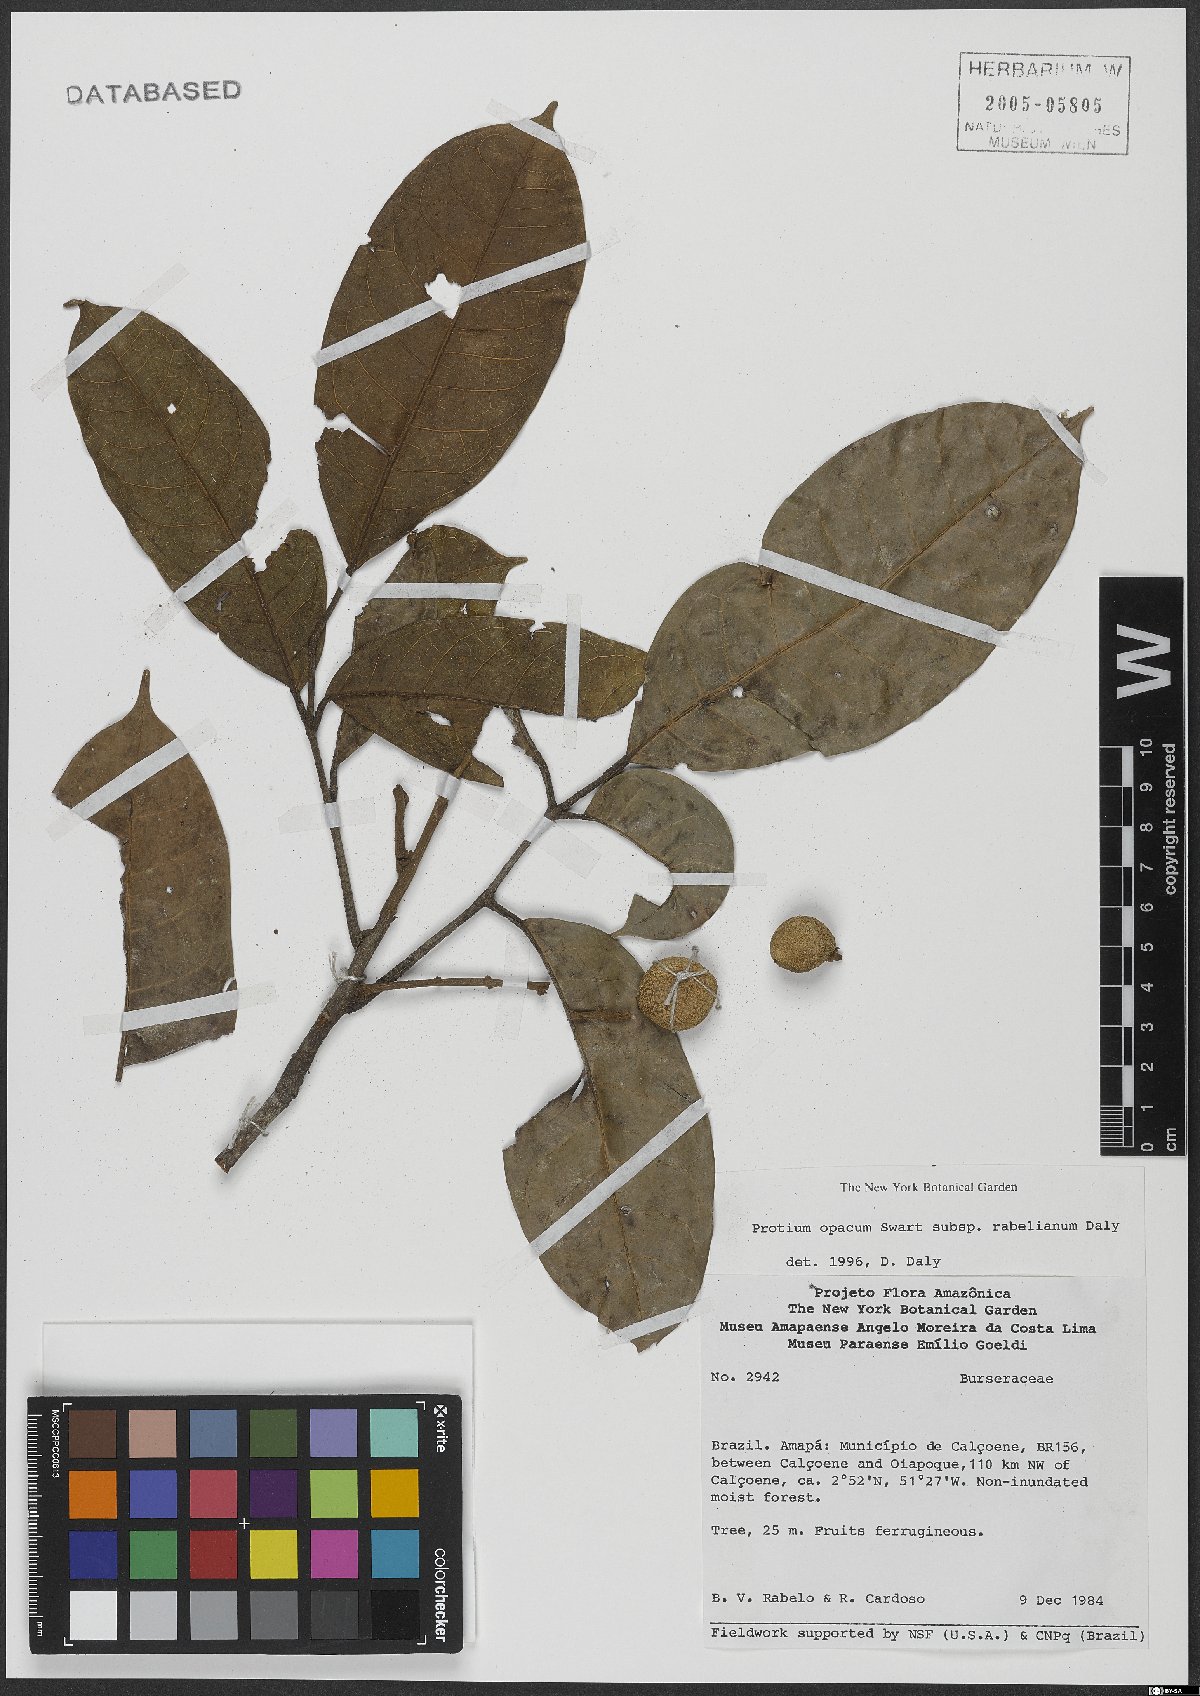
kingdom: Plantae
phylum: Tracheophyta
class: Magnoliopsida
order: Sapindales
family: Burseraceae
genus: Protium
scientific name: Protium opacum
